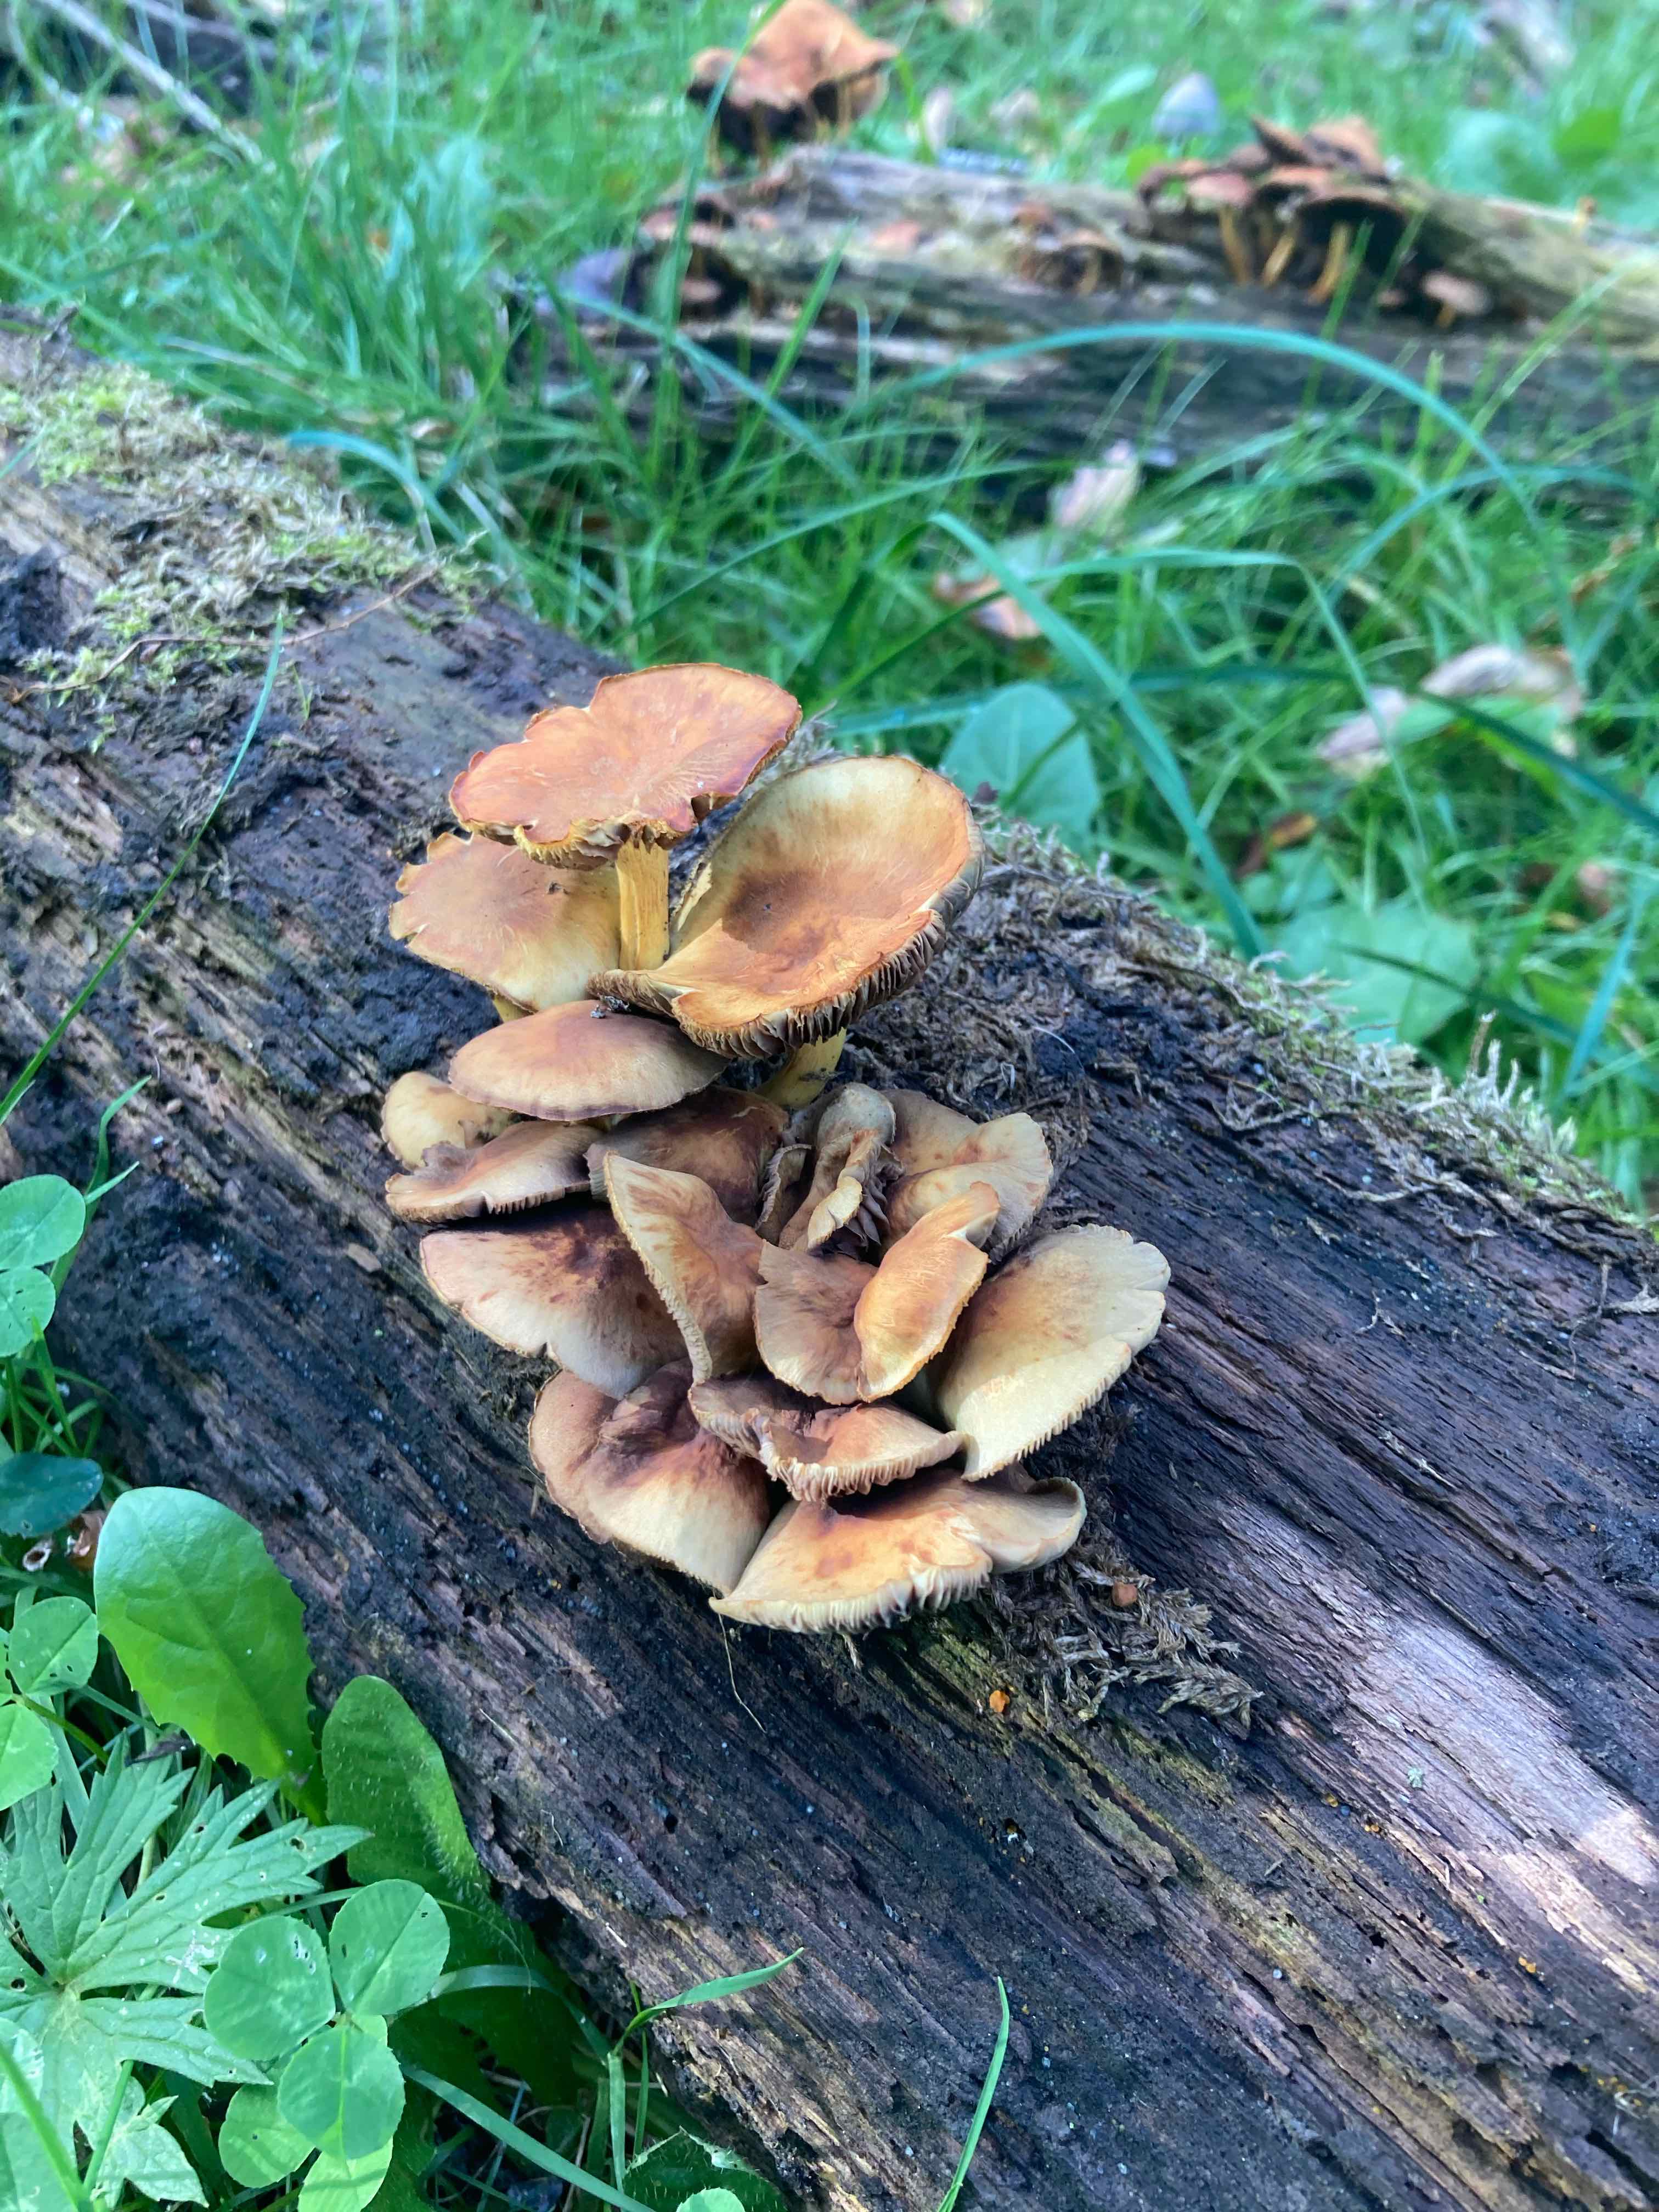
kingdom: Fungi
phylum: Basidiomycota
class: Agaricomycetes
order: Agaricales
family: Strophariaceae
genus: Hypholoma
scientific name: Hypholoma fasciculare
